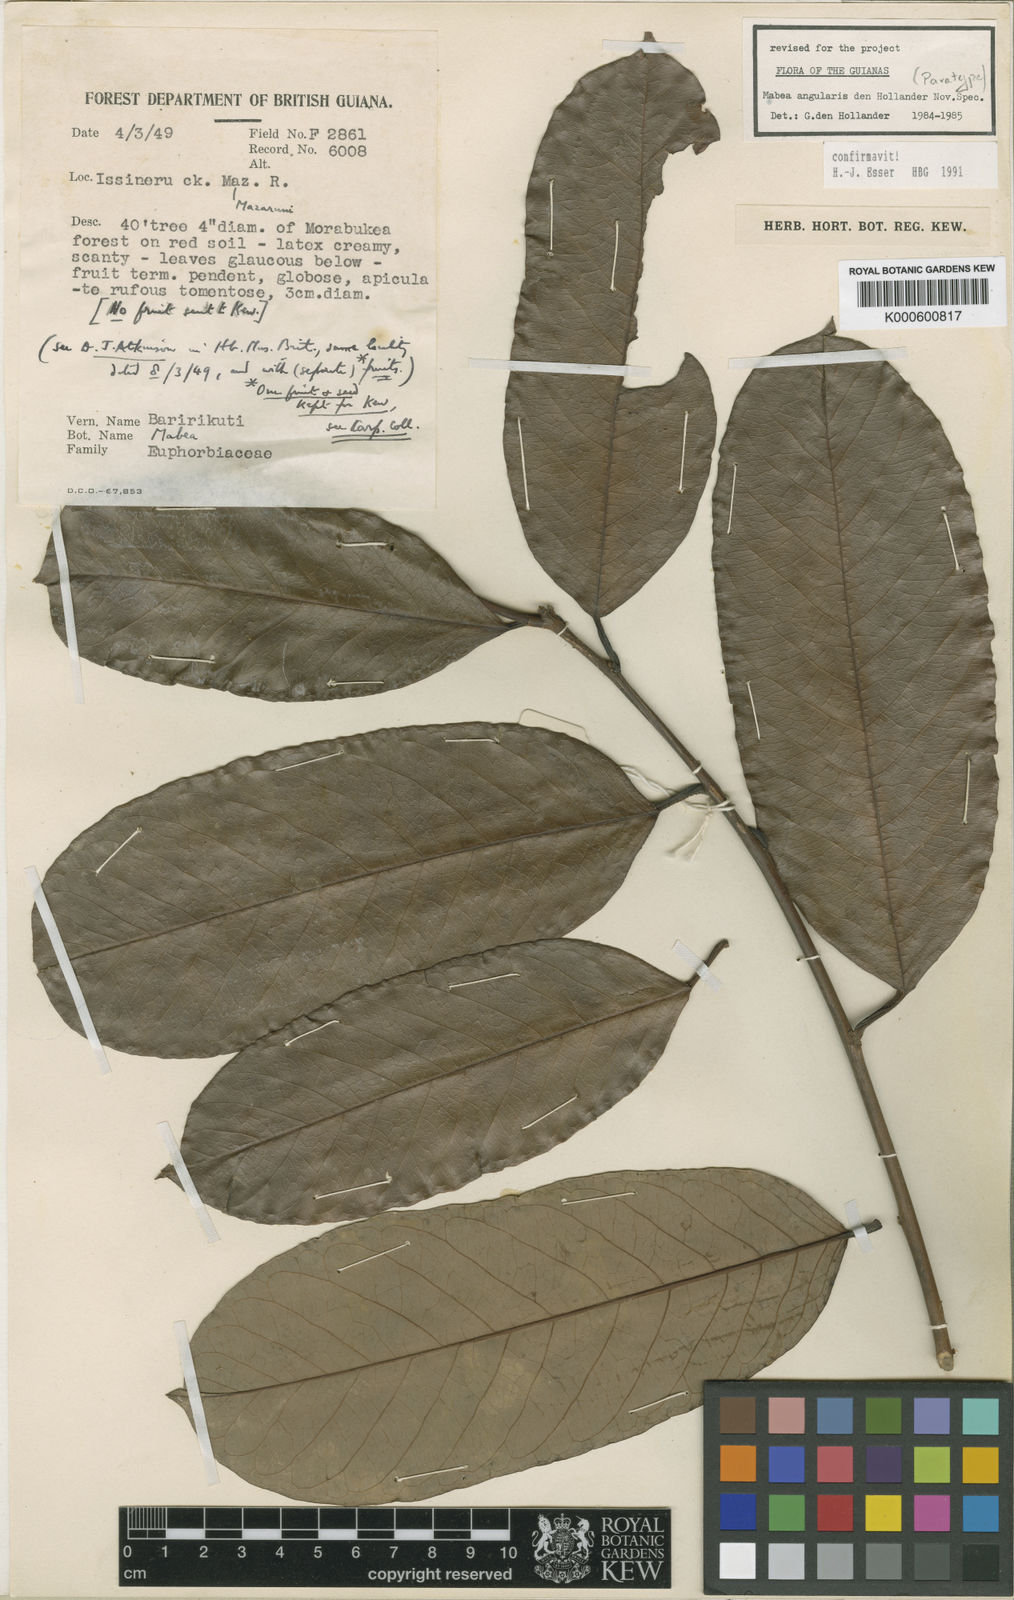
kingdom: Plantae
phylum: Tracheophyta
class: Magnoliopsida
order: Malpighiales
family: Euphorbiaceae
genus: Mabea
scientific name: Mabea angularis
